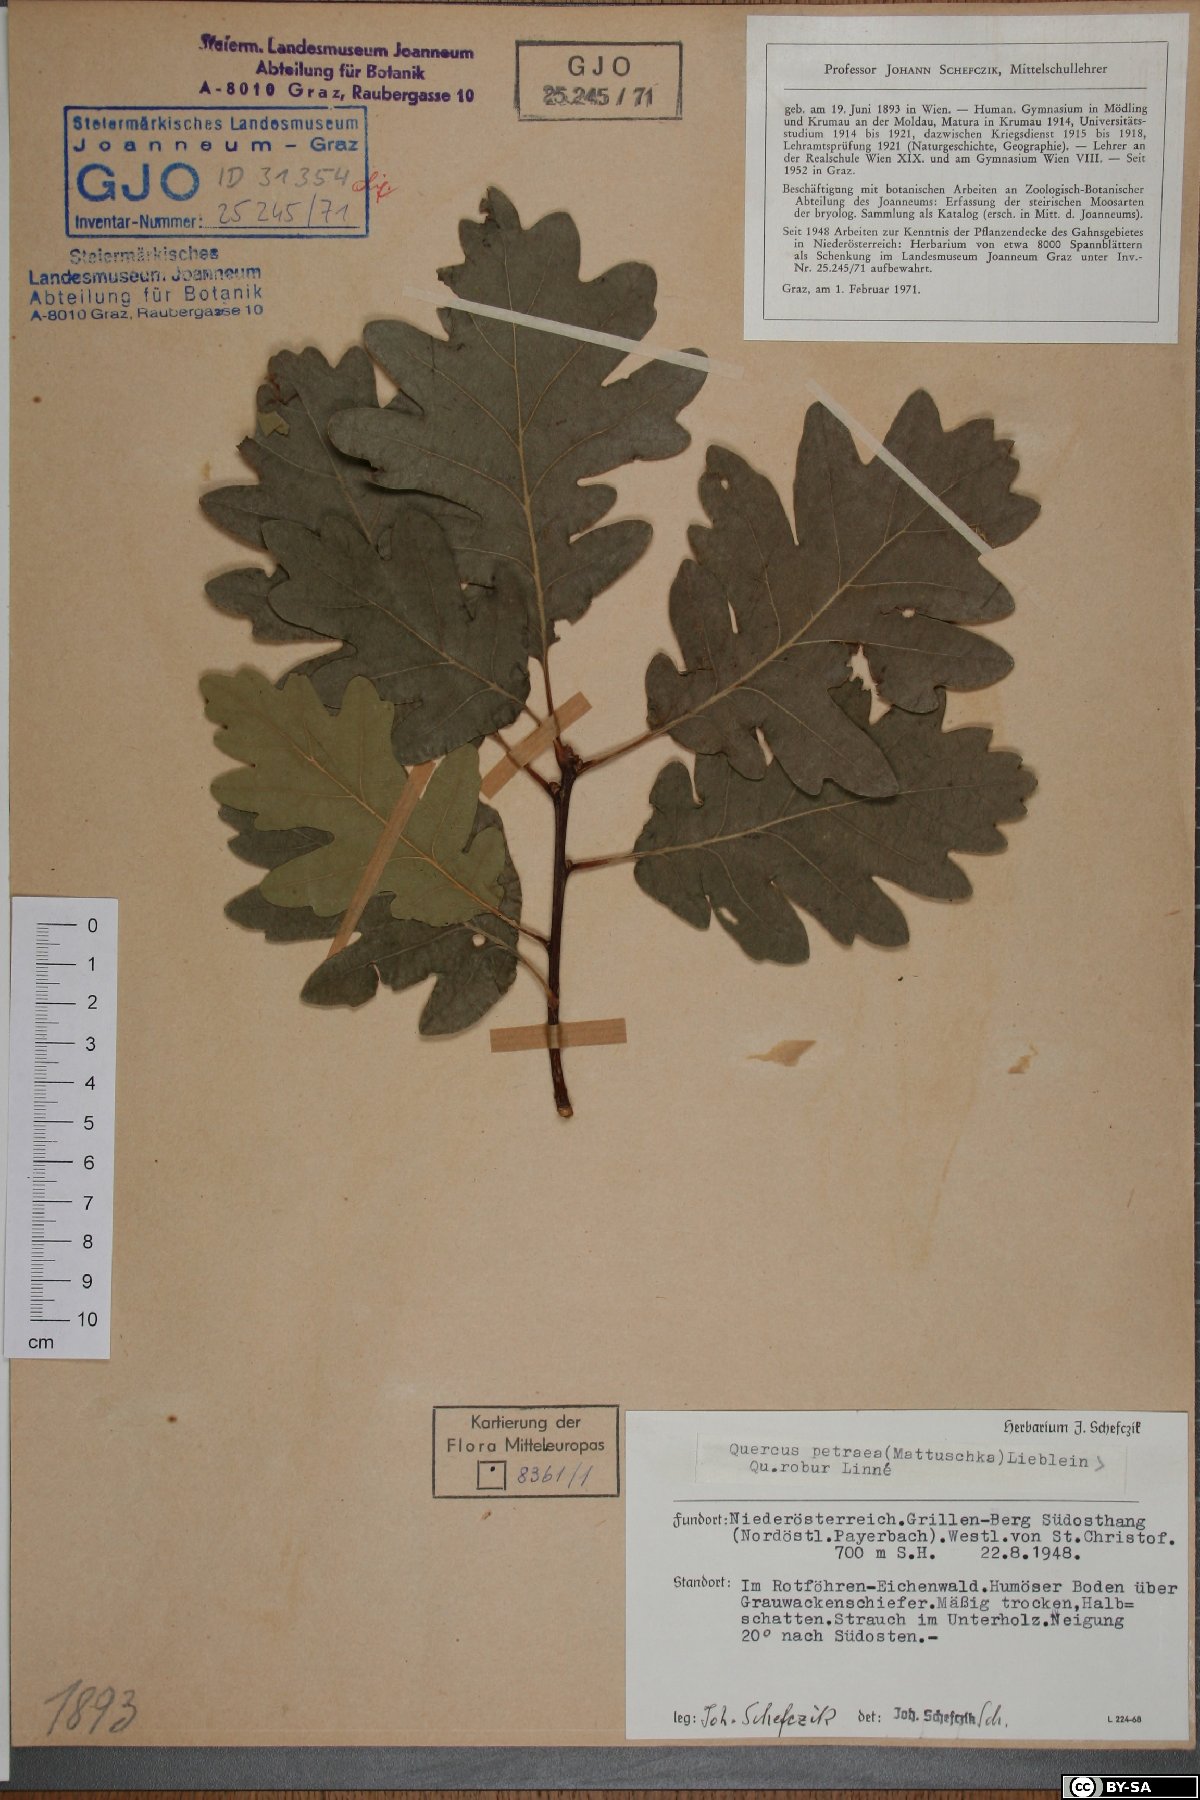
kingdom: Plantae
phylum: Tracheophyta
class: Magnoliopsida
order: Fagales
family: Fagaceae
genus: Quercus
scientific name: Quercus petraea
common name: Sessile oak
